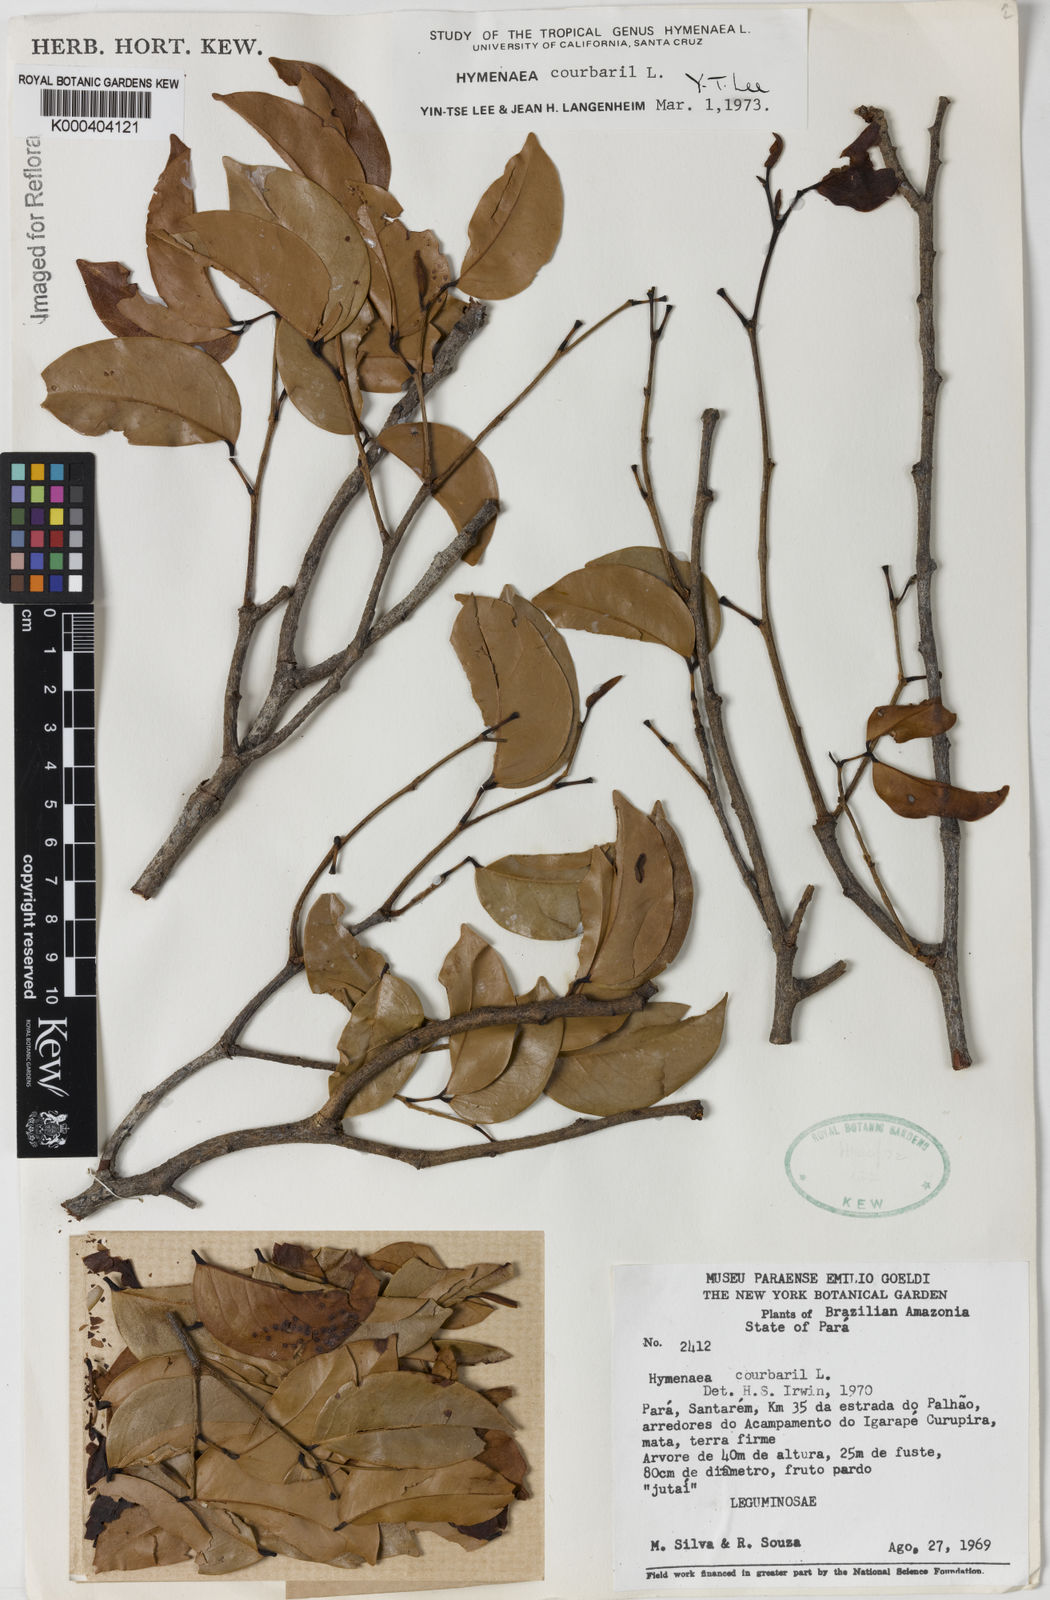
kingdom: Plantae
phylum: Tracheophyta
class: Magnoliopsida
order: Fabales
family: Fabaceae
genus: Hymenaea
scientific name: Hymenaea courbaril
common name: Brazilian copal
